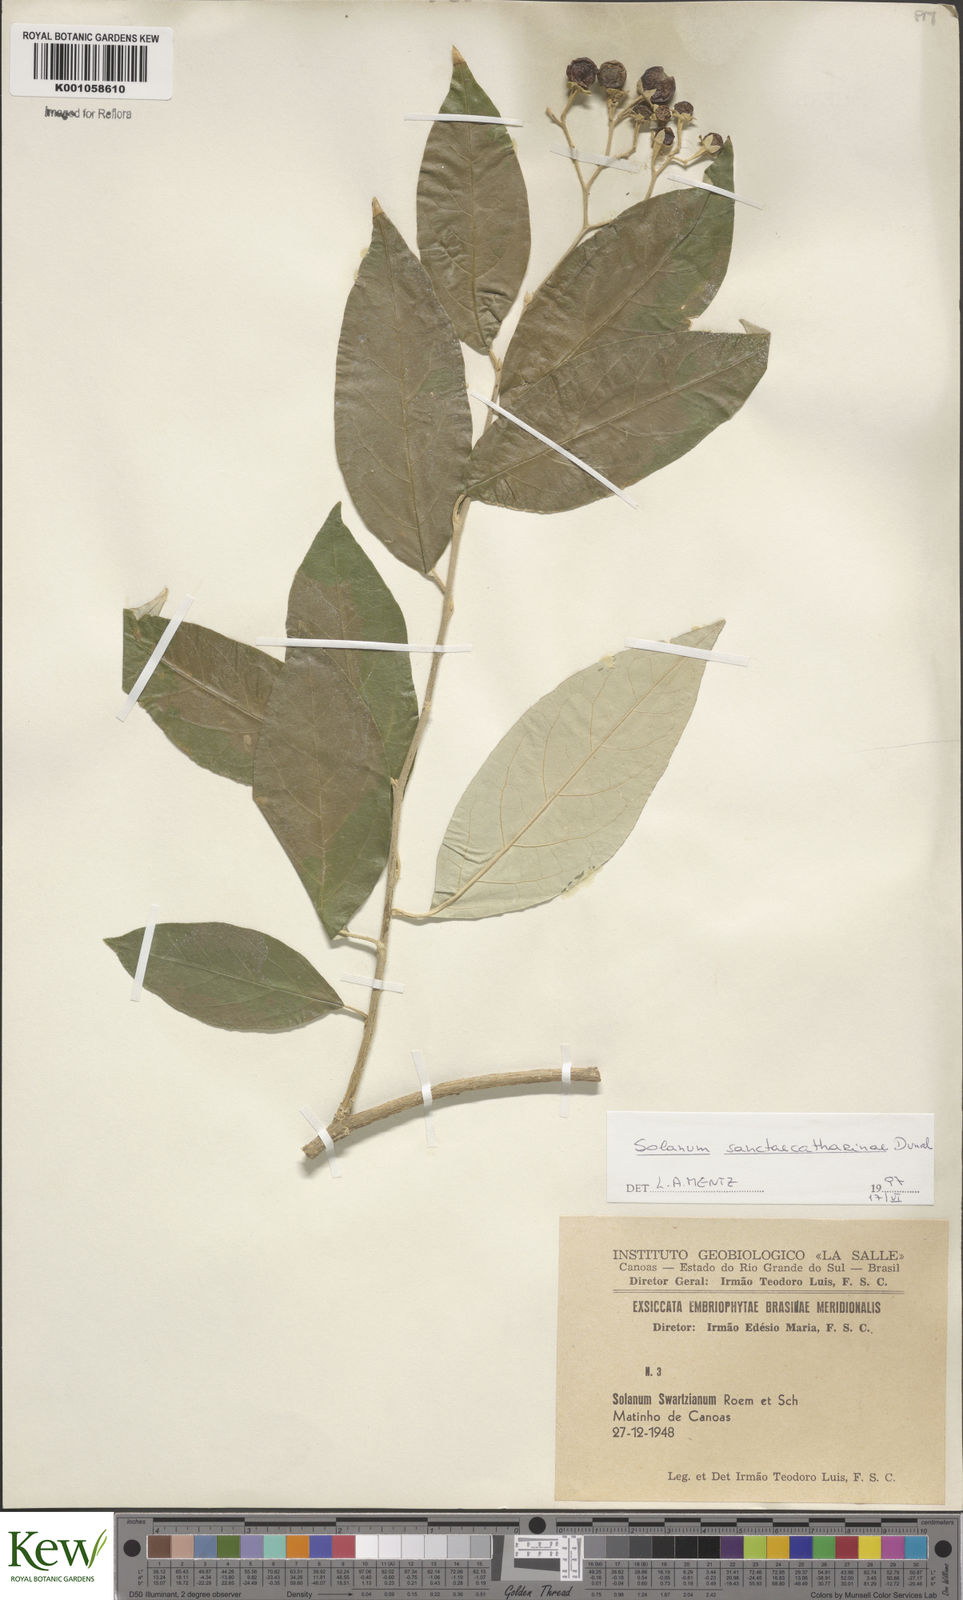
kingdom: Plantae
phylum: Tracheophyta
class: Magnoliopsida
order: Solanales
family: Solanaceae
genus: Solanum
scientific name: Solanum sanctae-catharinae
